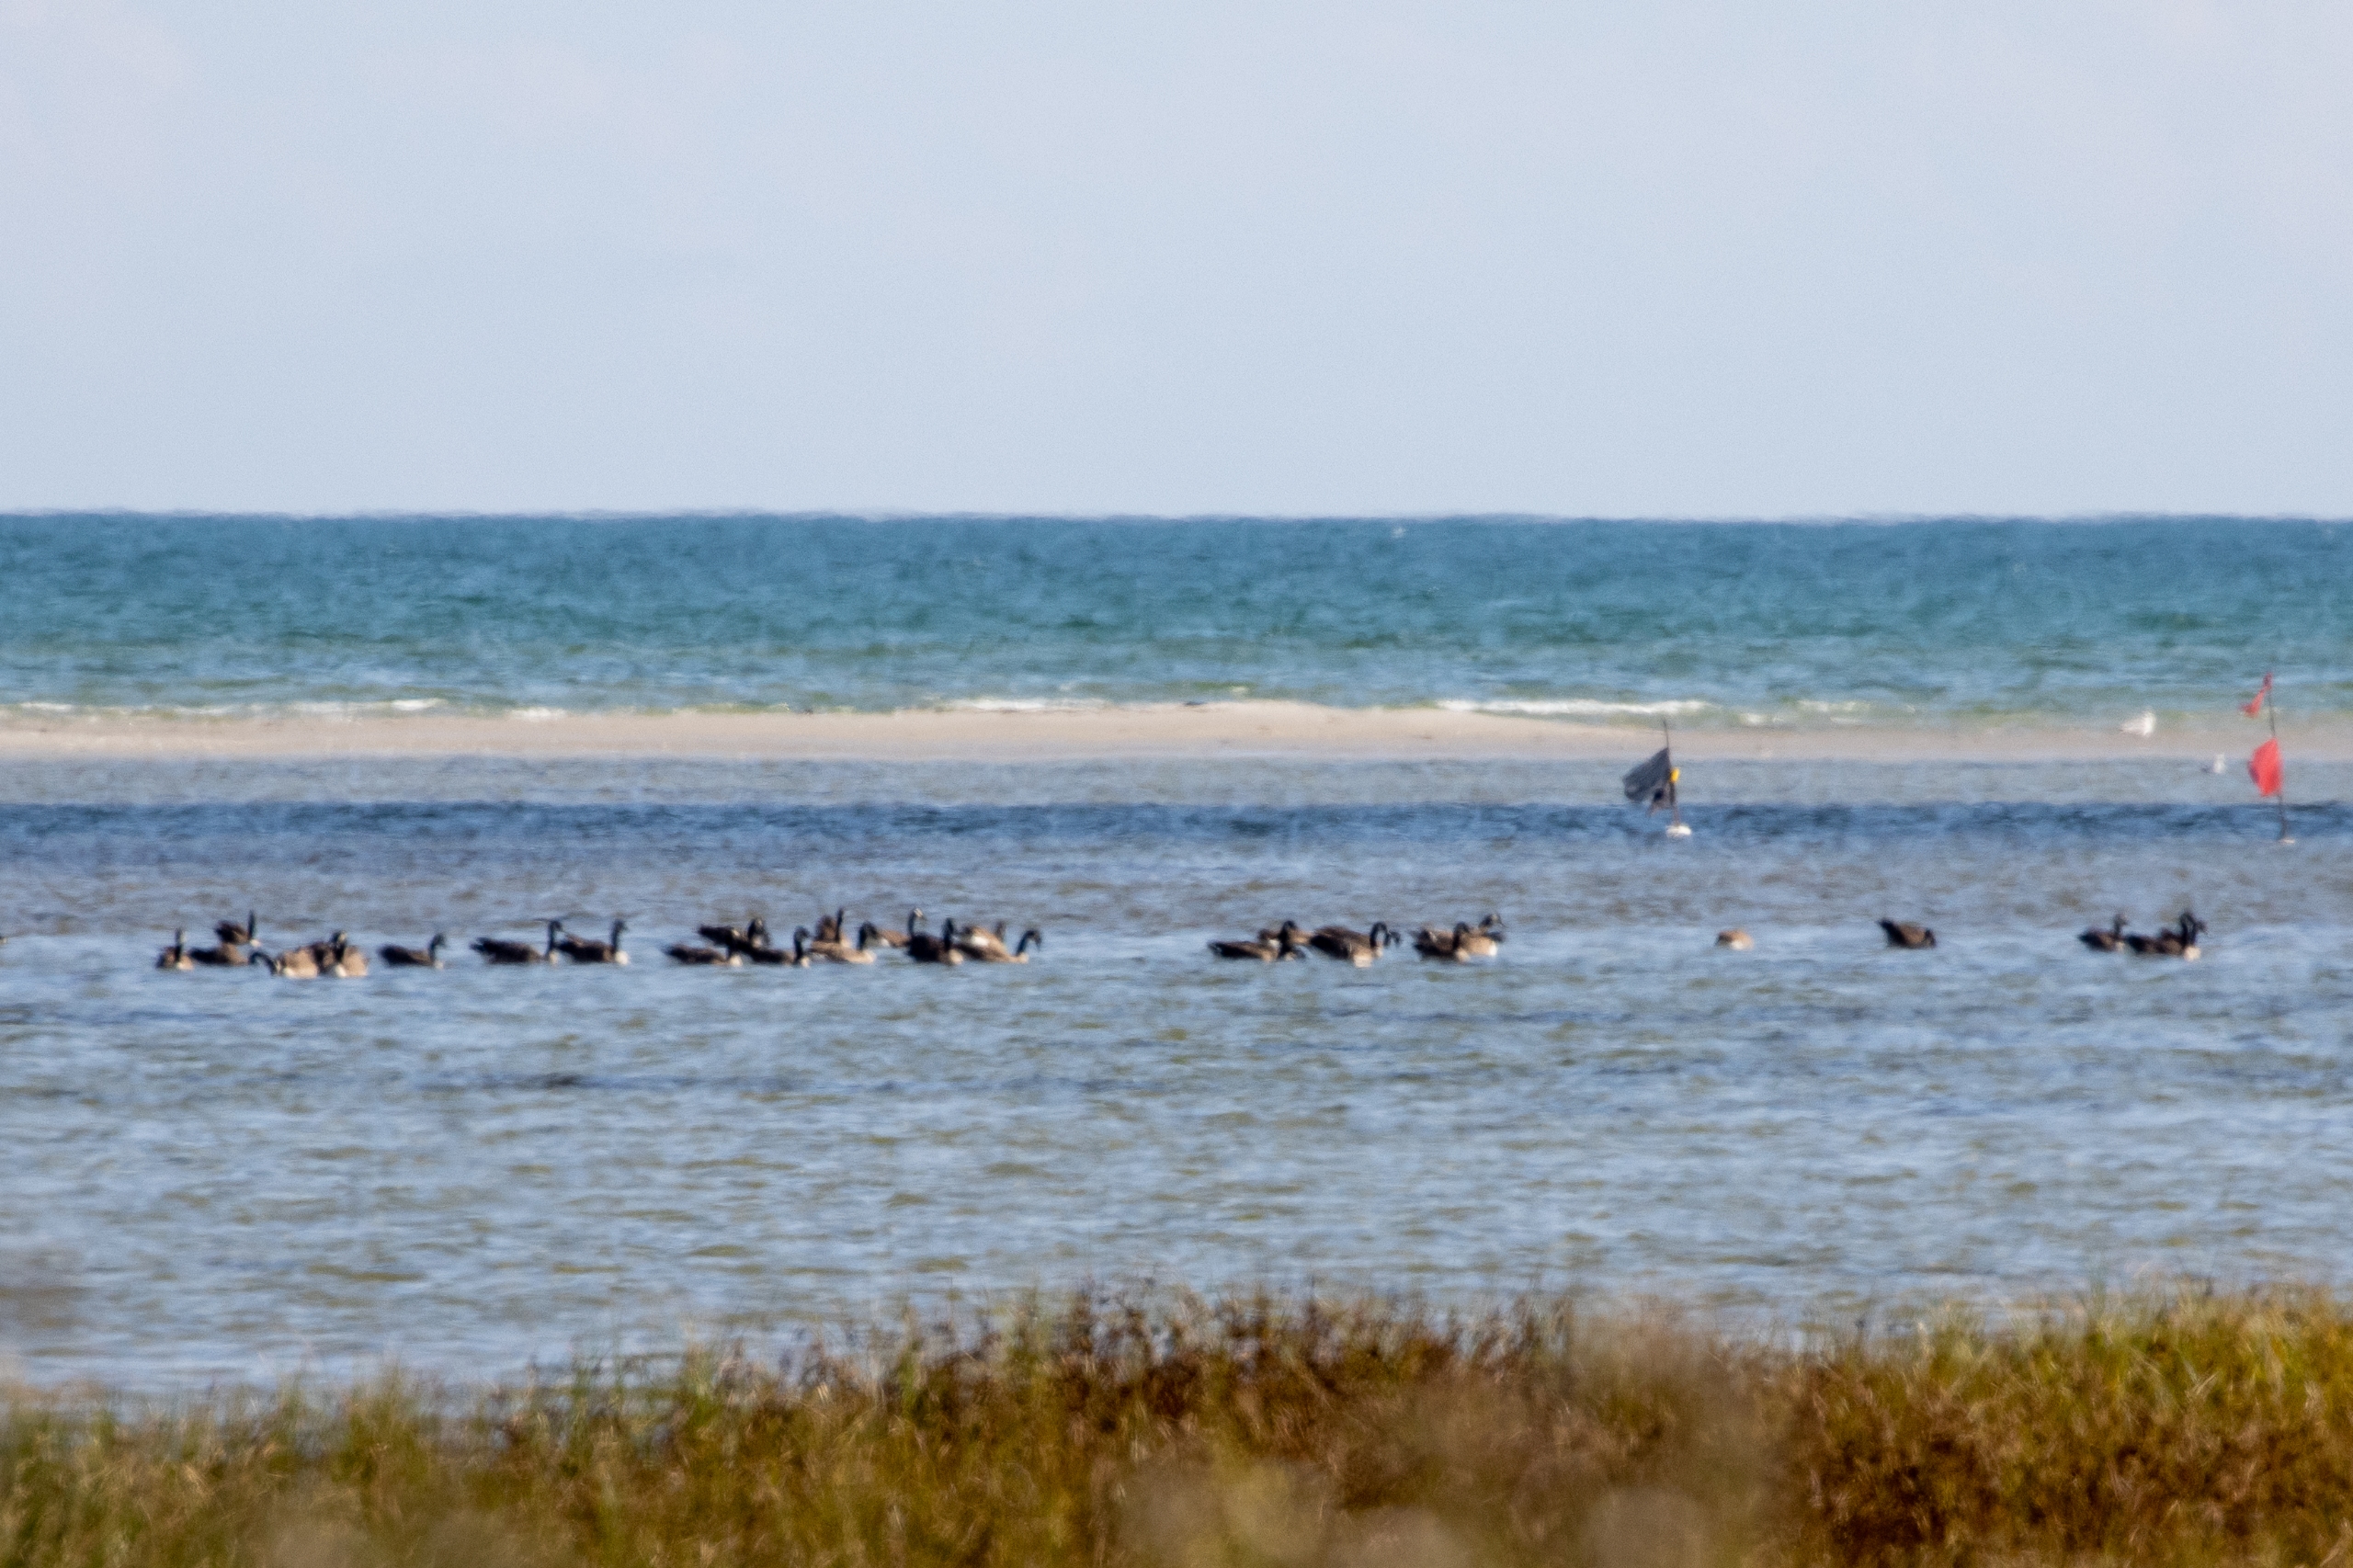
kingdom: Animalia
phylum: Chordata
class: Aves
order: Anseriformes
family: Anatidae
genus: Branta
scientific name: Branta canadensis
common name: Canadagås
